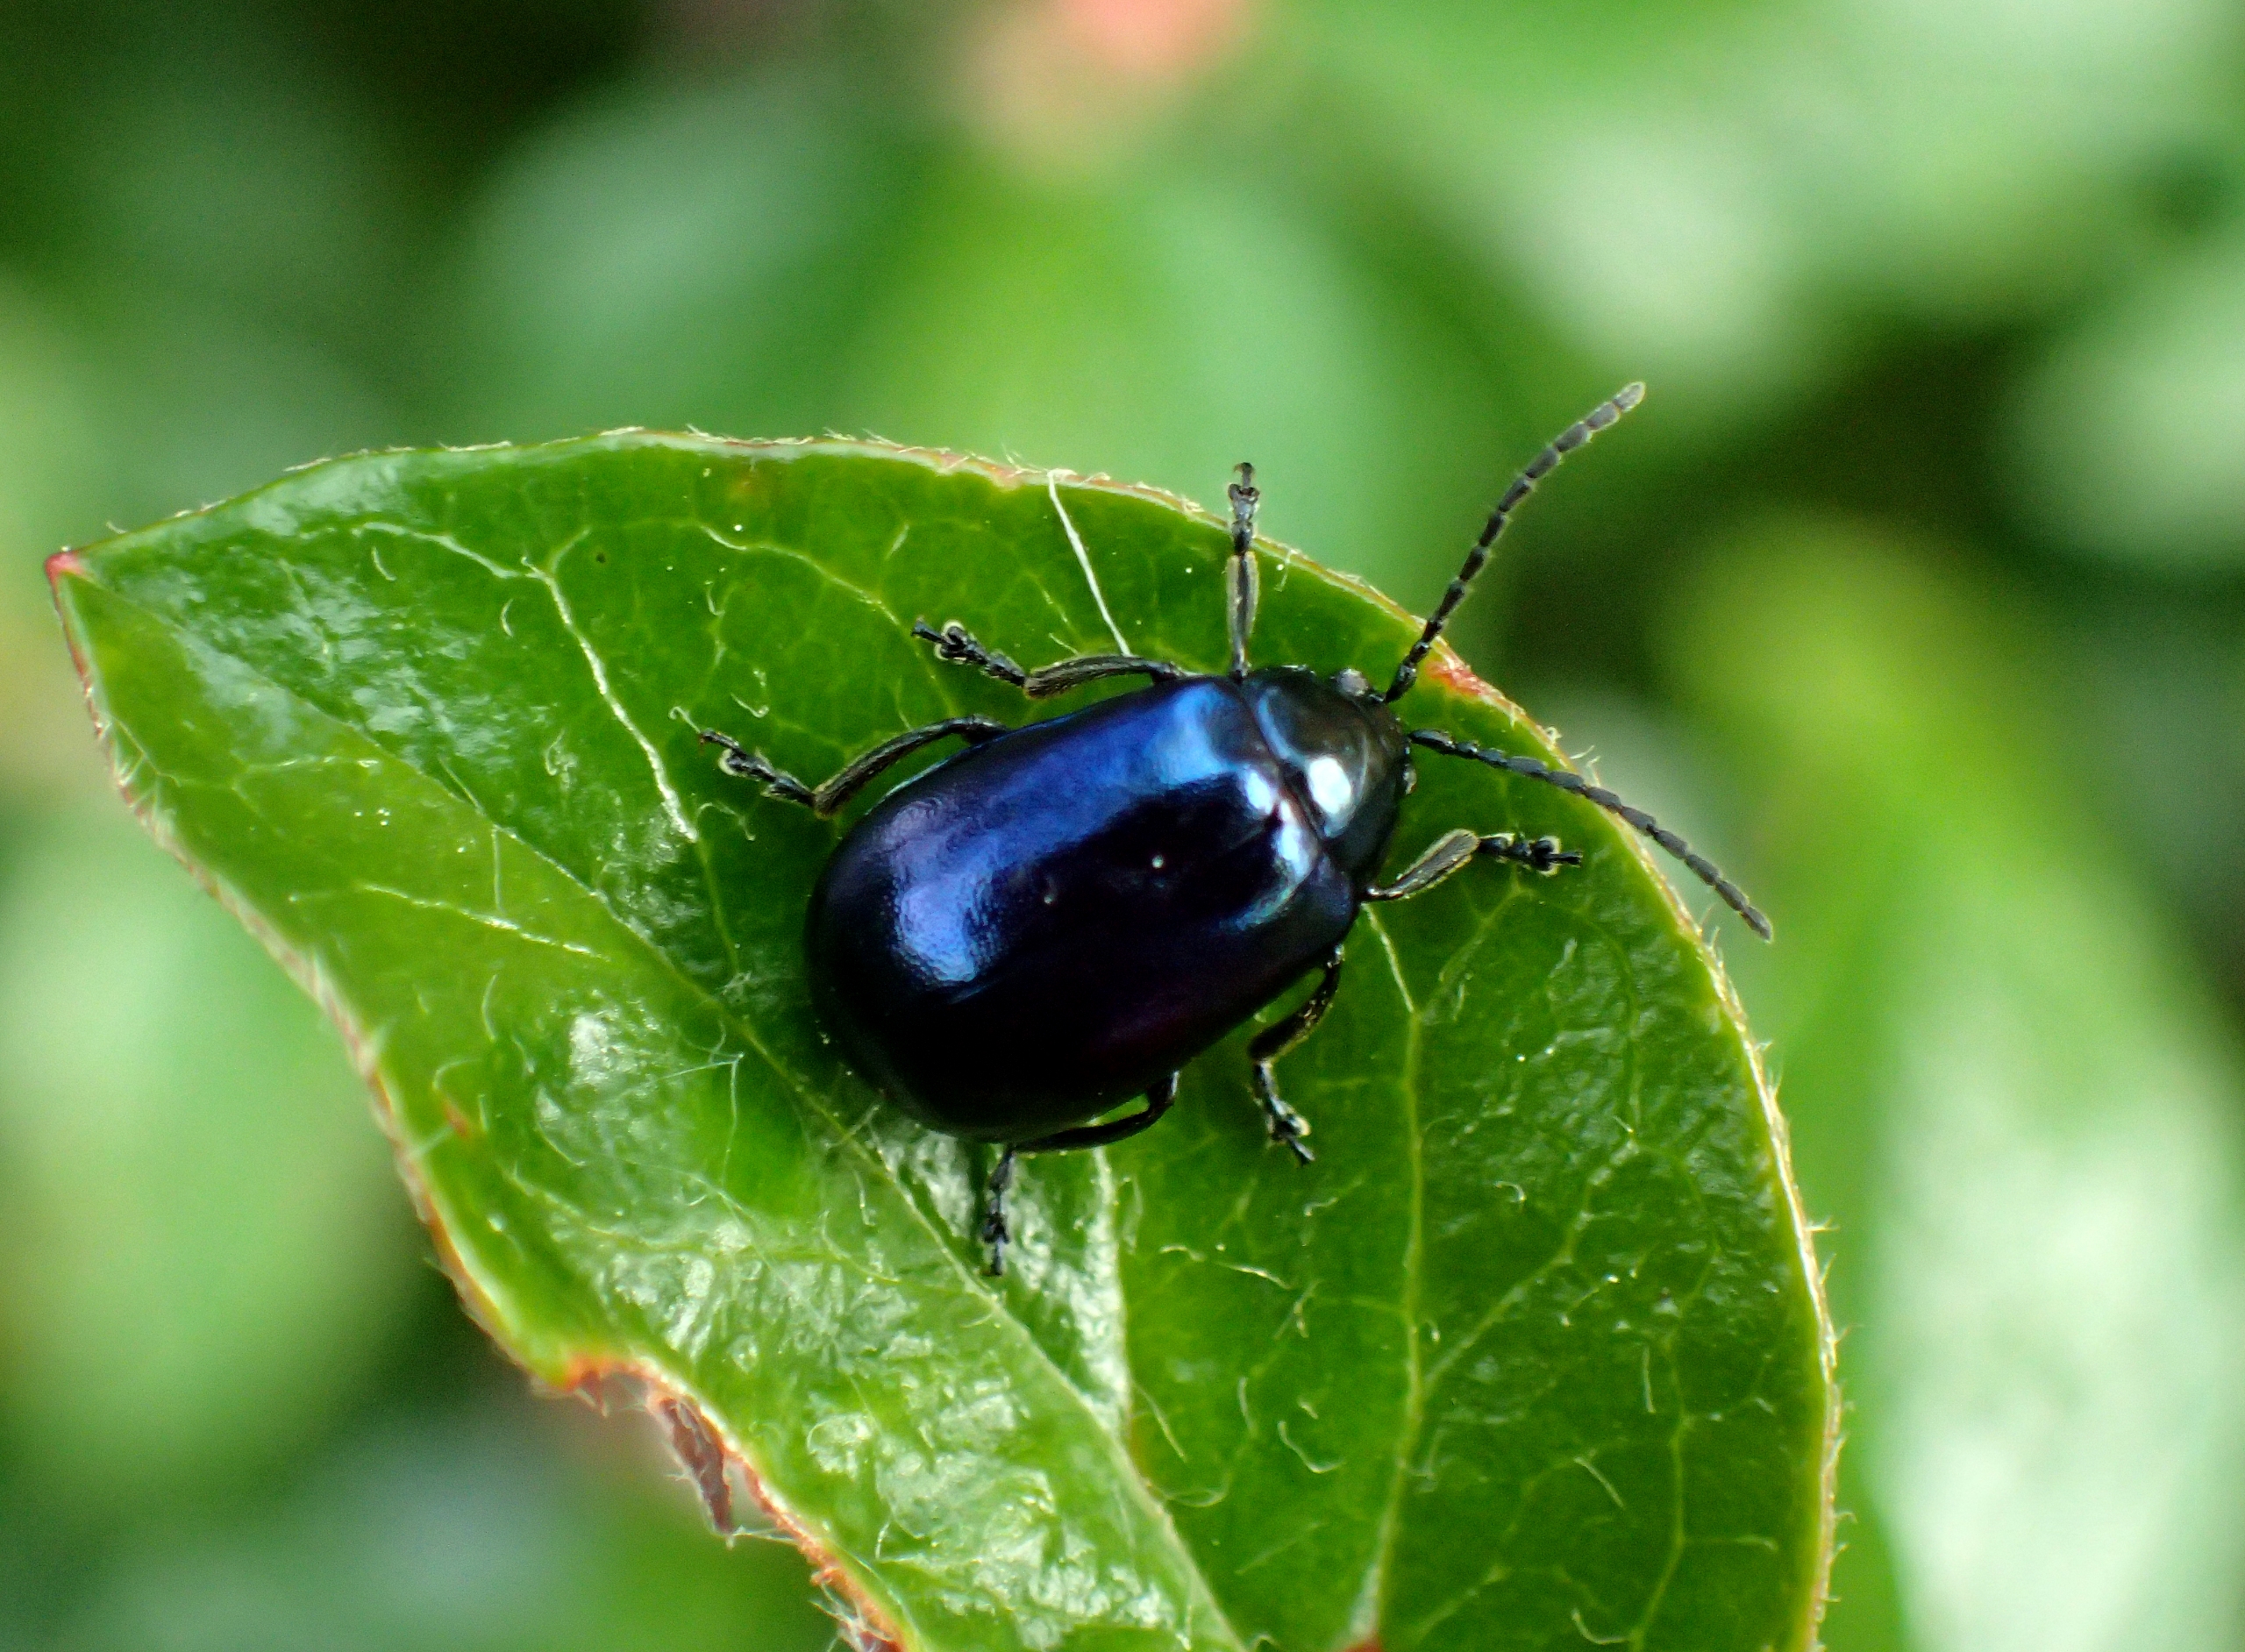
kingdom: Animalia
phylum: Arthropoda
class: Insecta
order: Coleoptera
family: Chrysomelidae
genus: Agelastica
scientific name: Agelastica alni
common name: Ellebladbille
